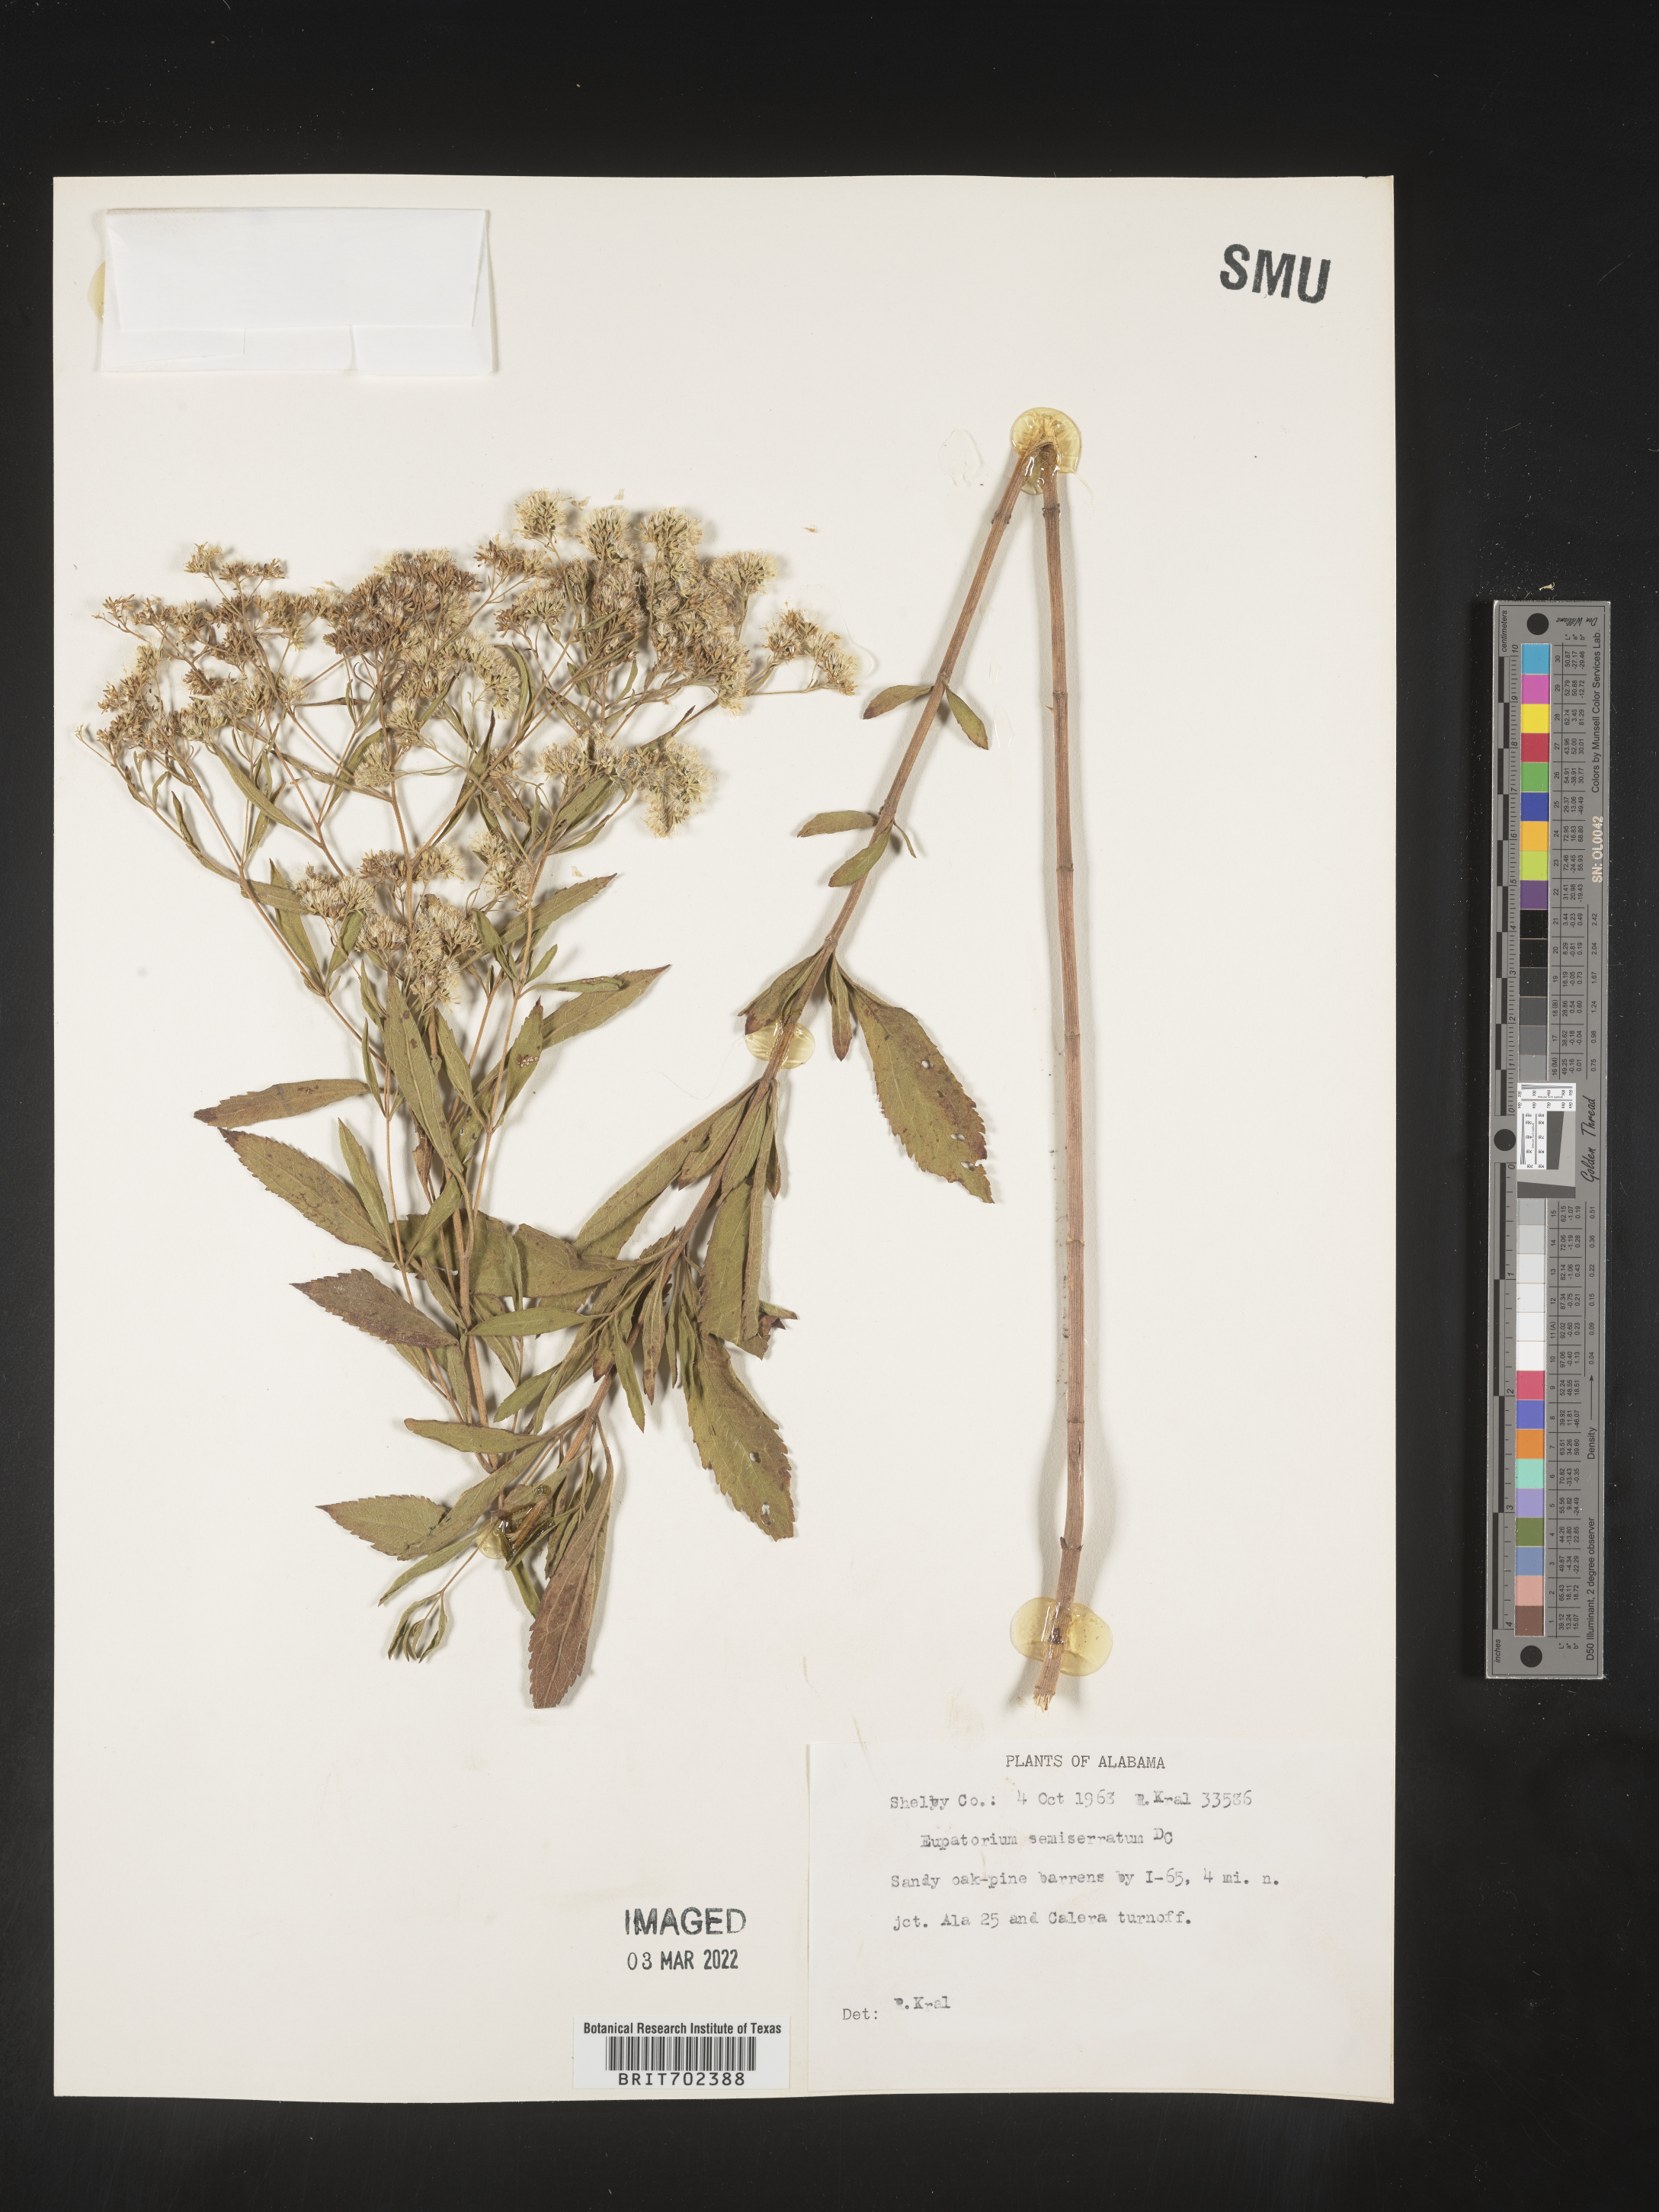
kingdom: Plantae
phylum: Tracheophyta
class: Magnoliopsida
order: Asterales
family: Asteraceae
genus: Eupatorium
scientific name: Eupatorium semiserratum
